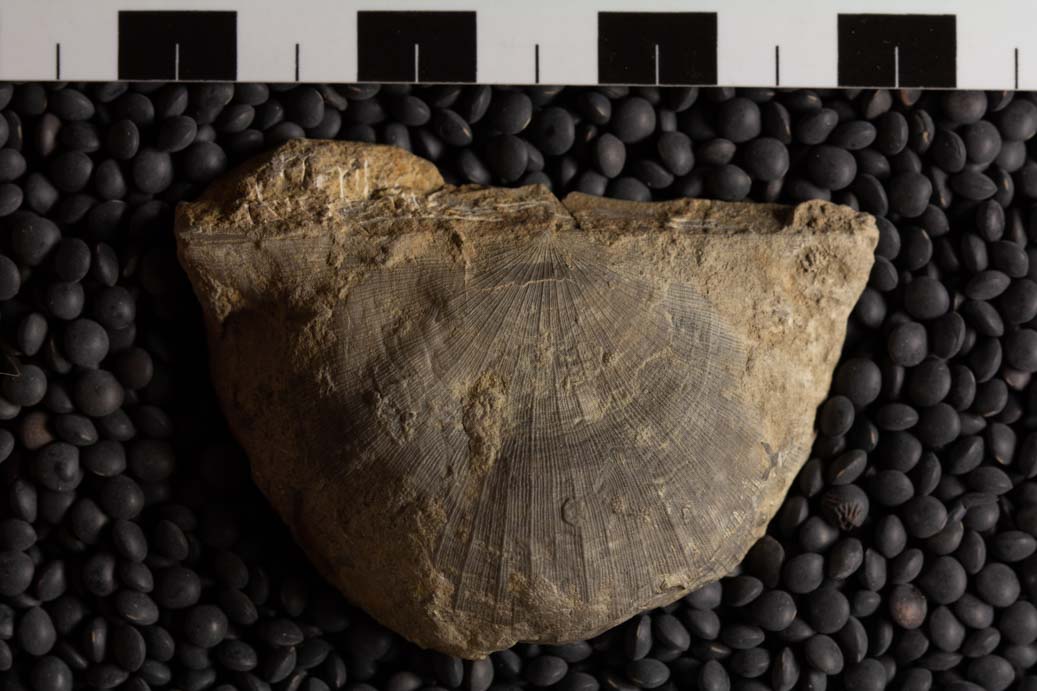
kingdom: Animalia
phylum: Brachiopoda
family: Strophomenidae
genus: Strophomena
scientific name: Strophomena
